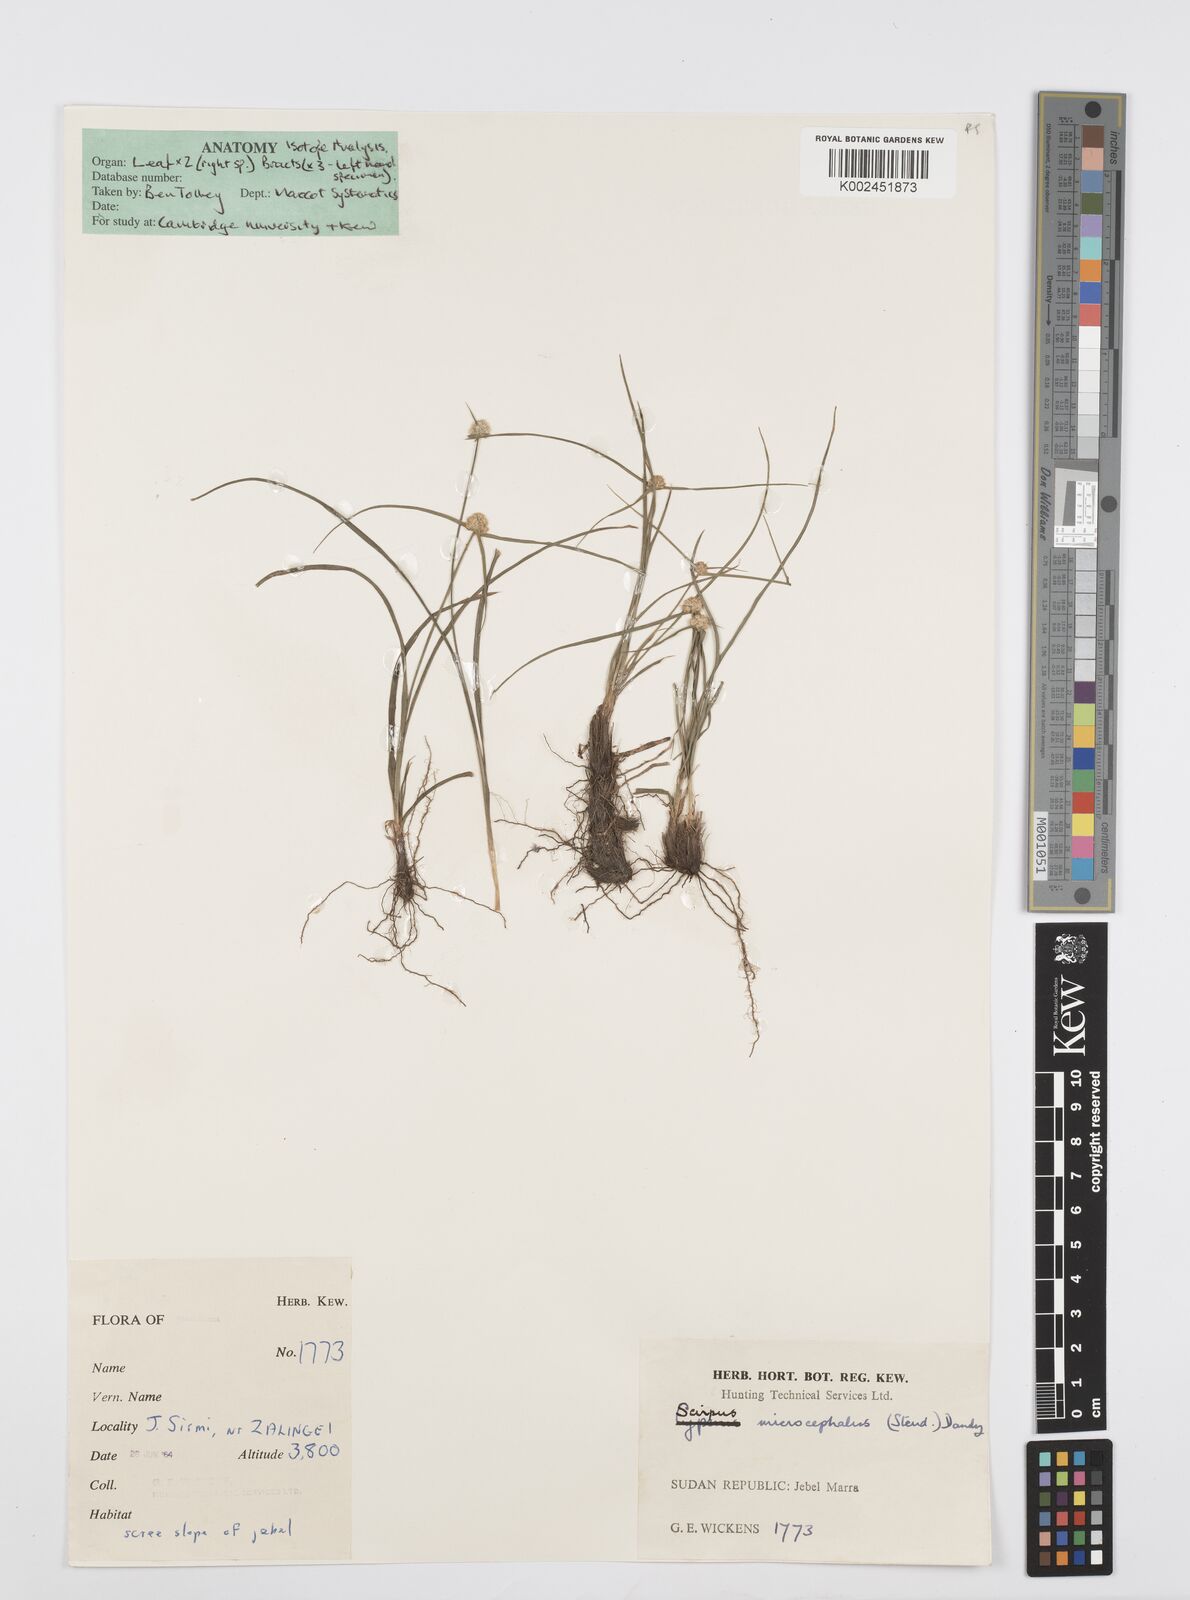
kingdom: Plantae
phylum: Tracheophyta
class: Liliopsida
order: Poales
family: Cyperaceae
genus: Cyperus
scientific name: Cyperus microcephalus
